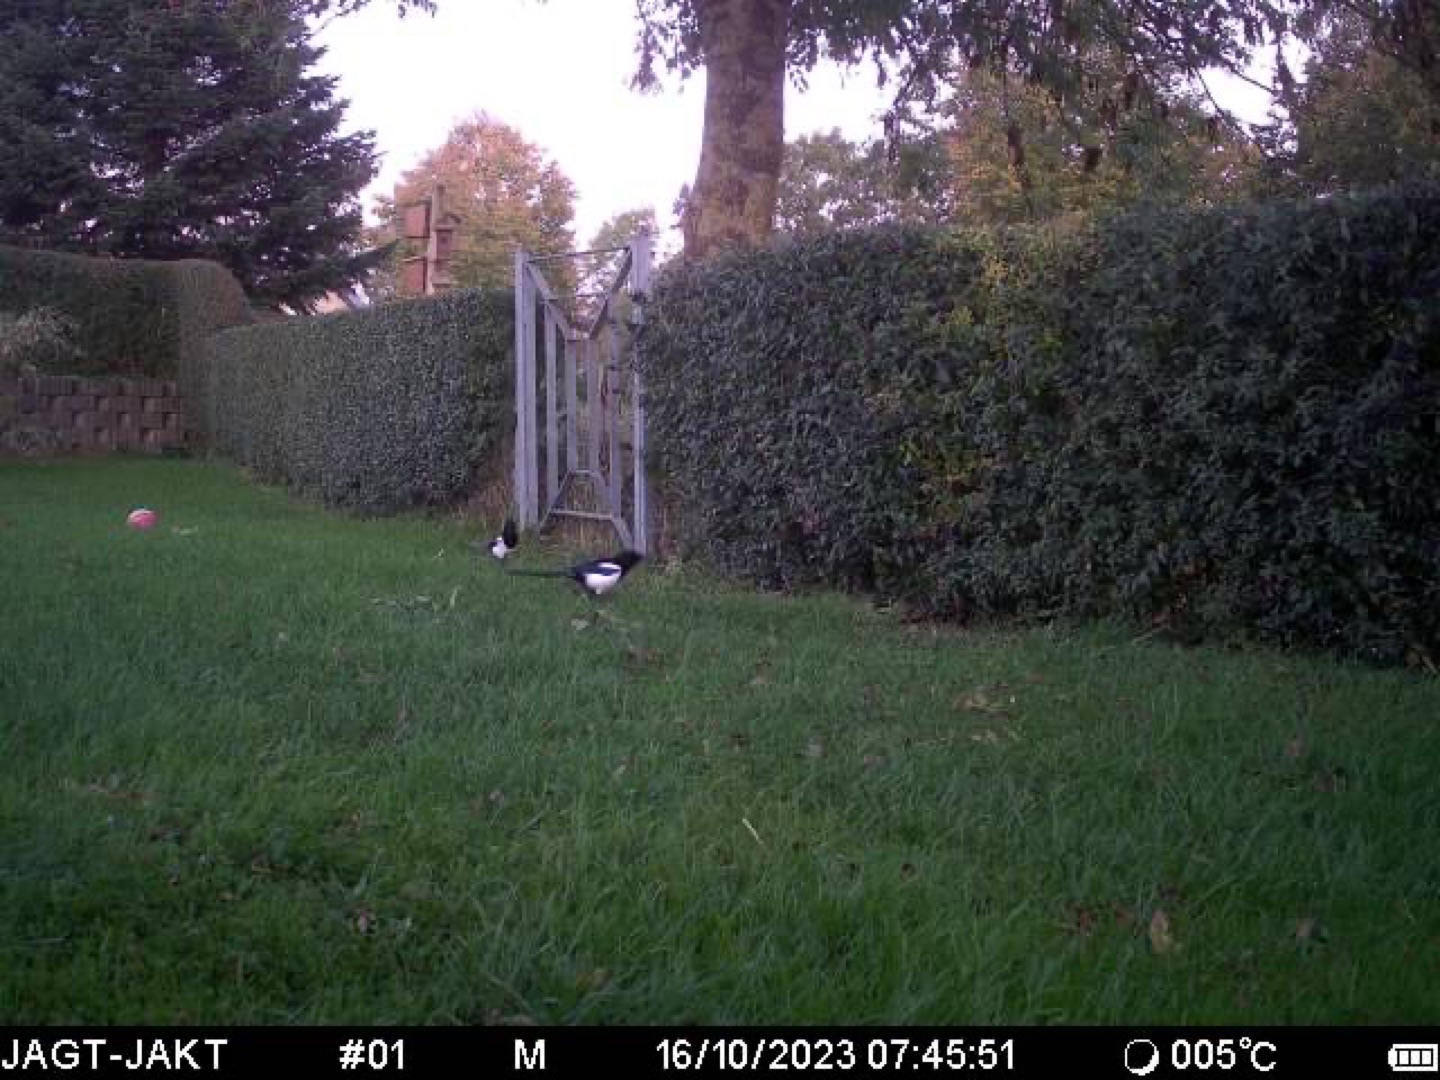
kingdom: Animalia
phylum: Chordata
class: Aves
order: Passeriformes
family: Corvidae
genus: Pica
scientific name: Pica pica
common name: Husskade
